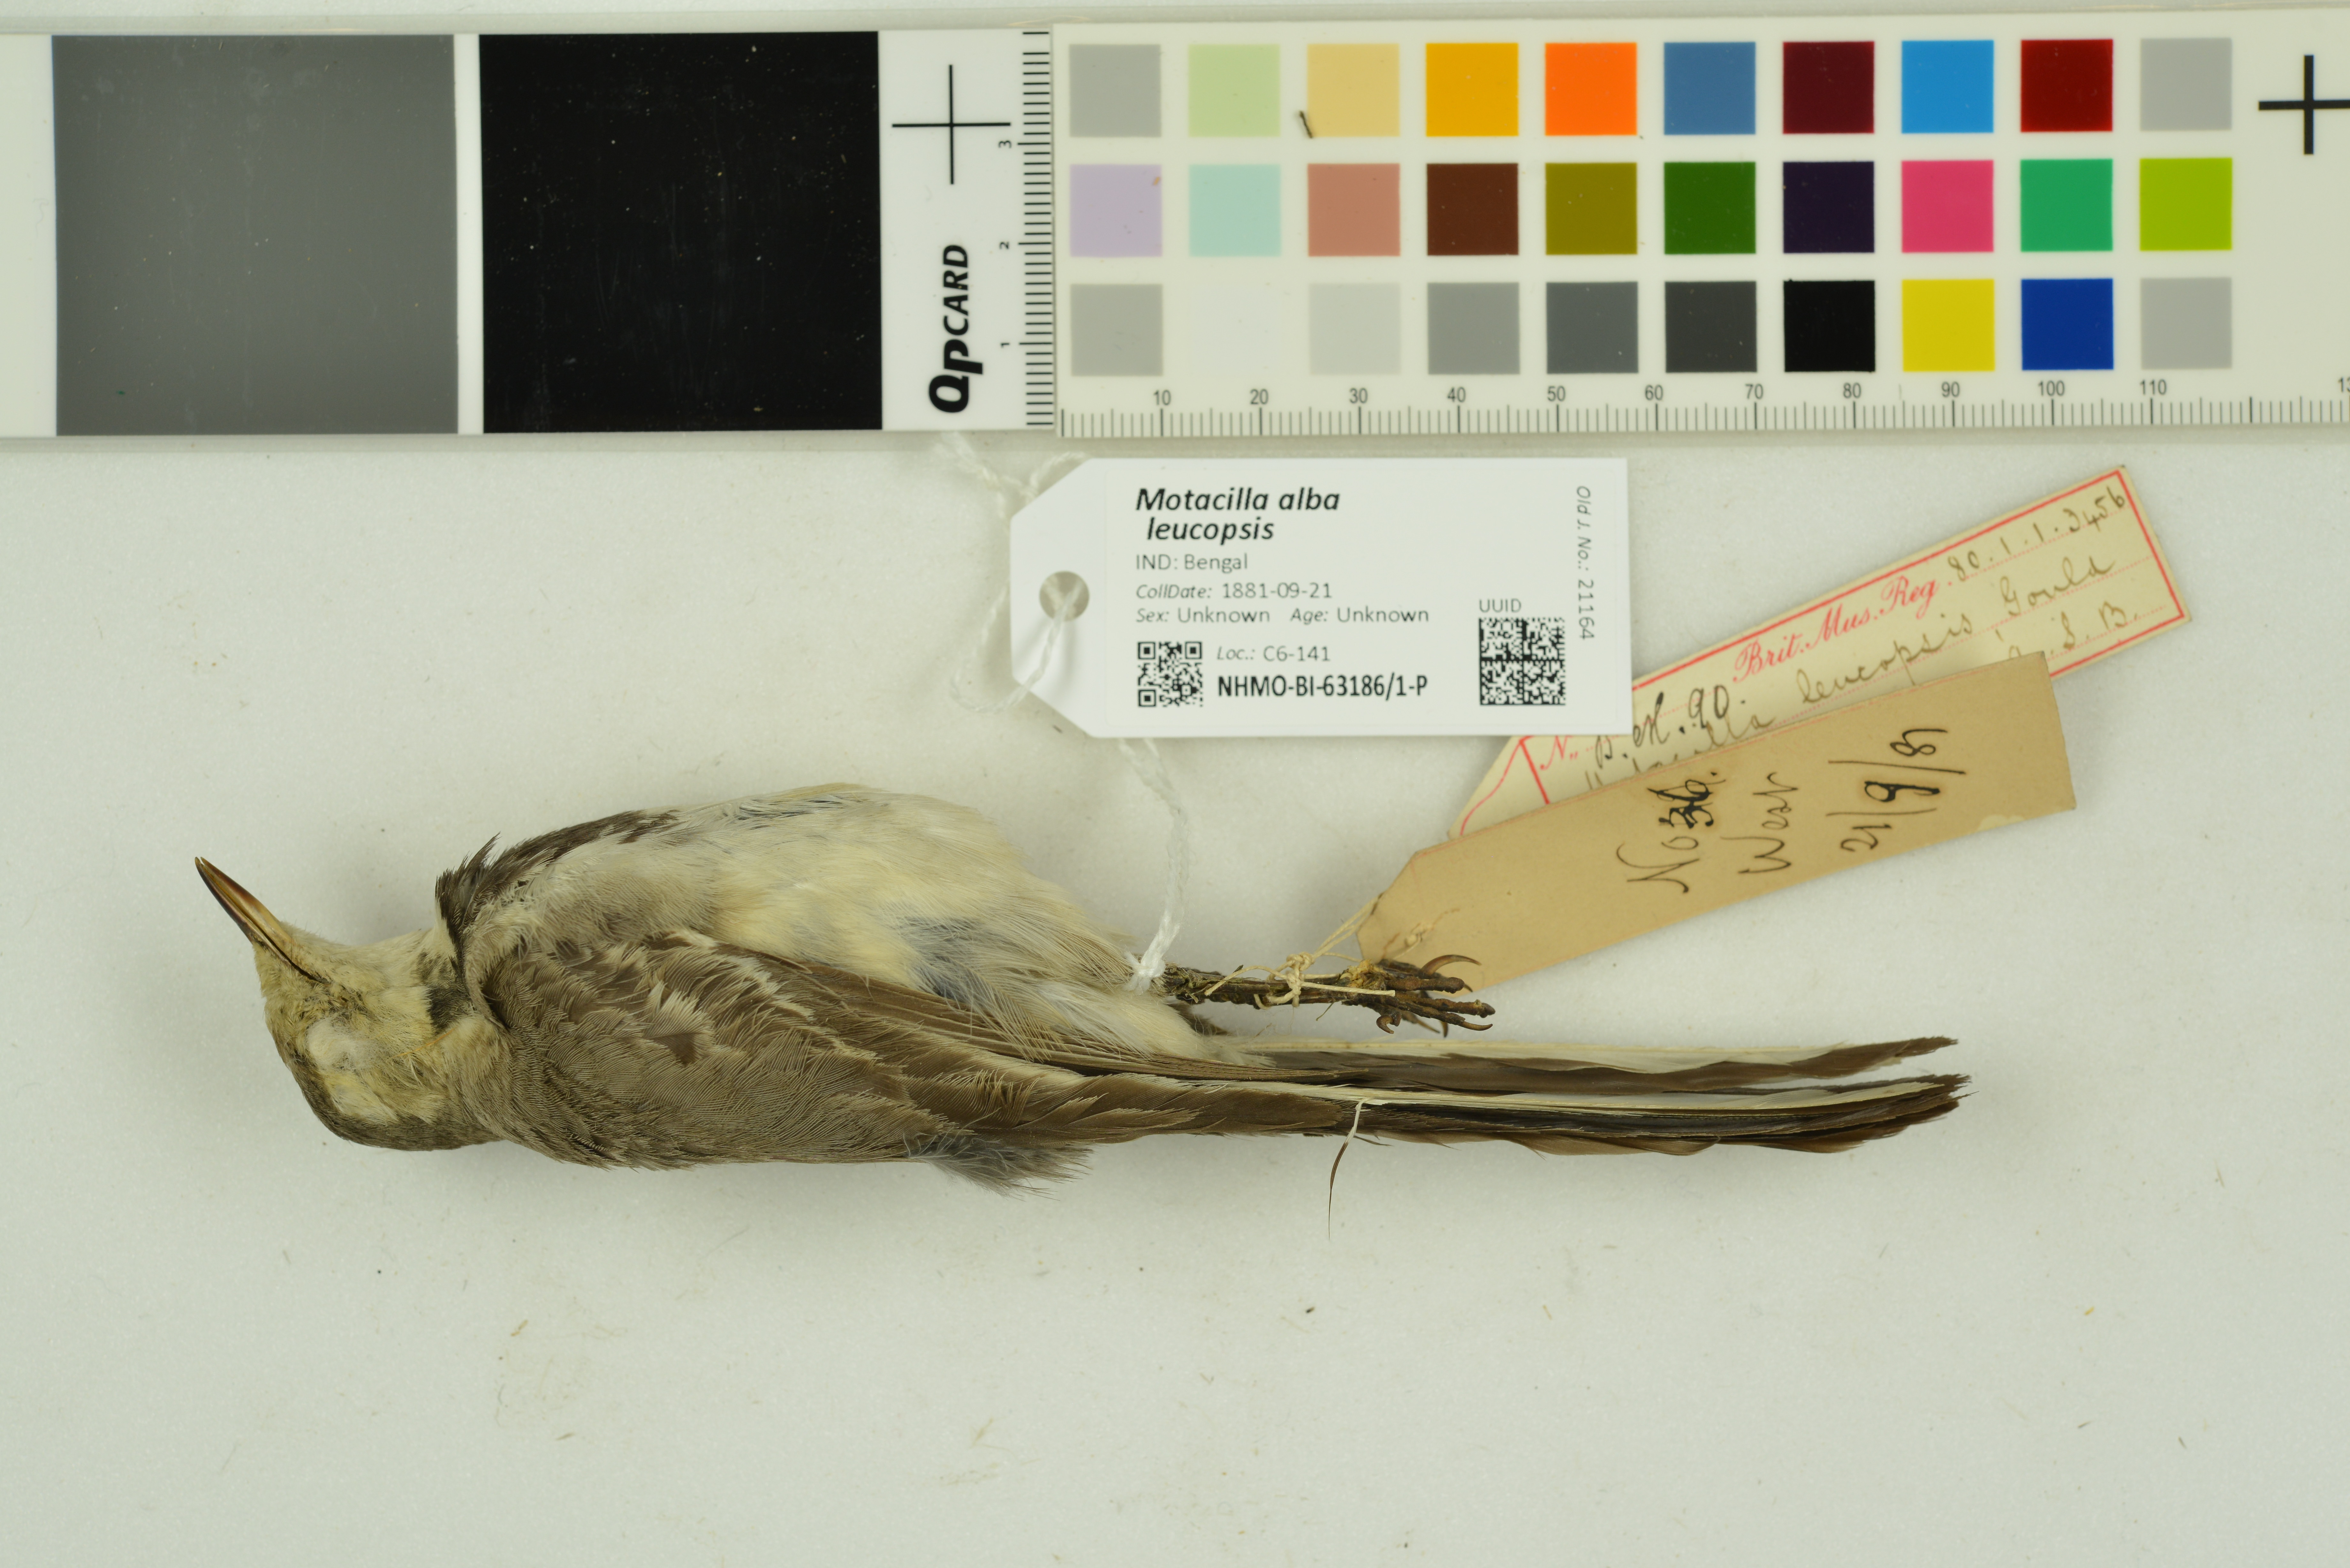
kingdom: Animalia
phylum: Chordata
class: Aves
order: Passeriformes
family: Motacillidae
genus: Motacilla
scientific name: Motacilla alba
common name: White wagtail
